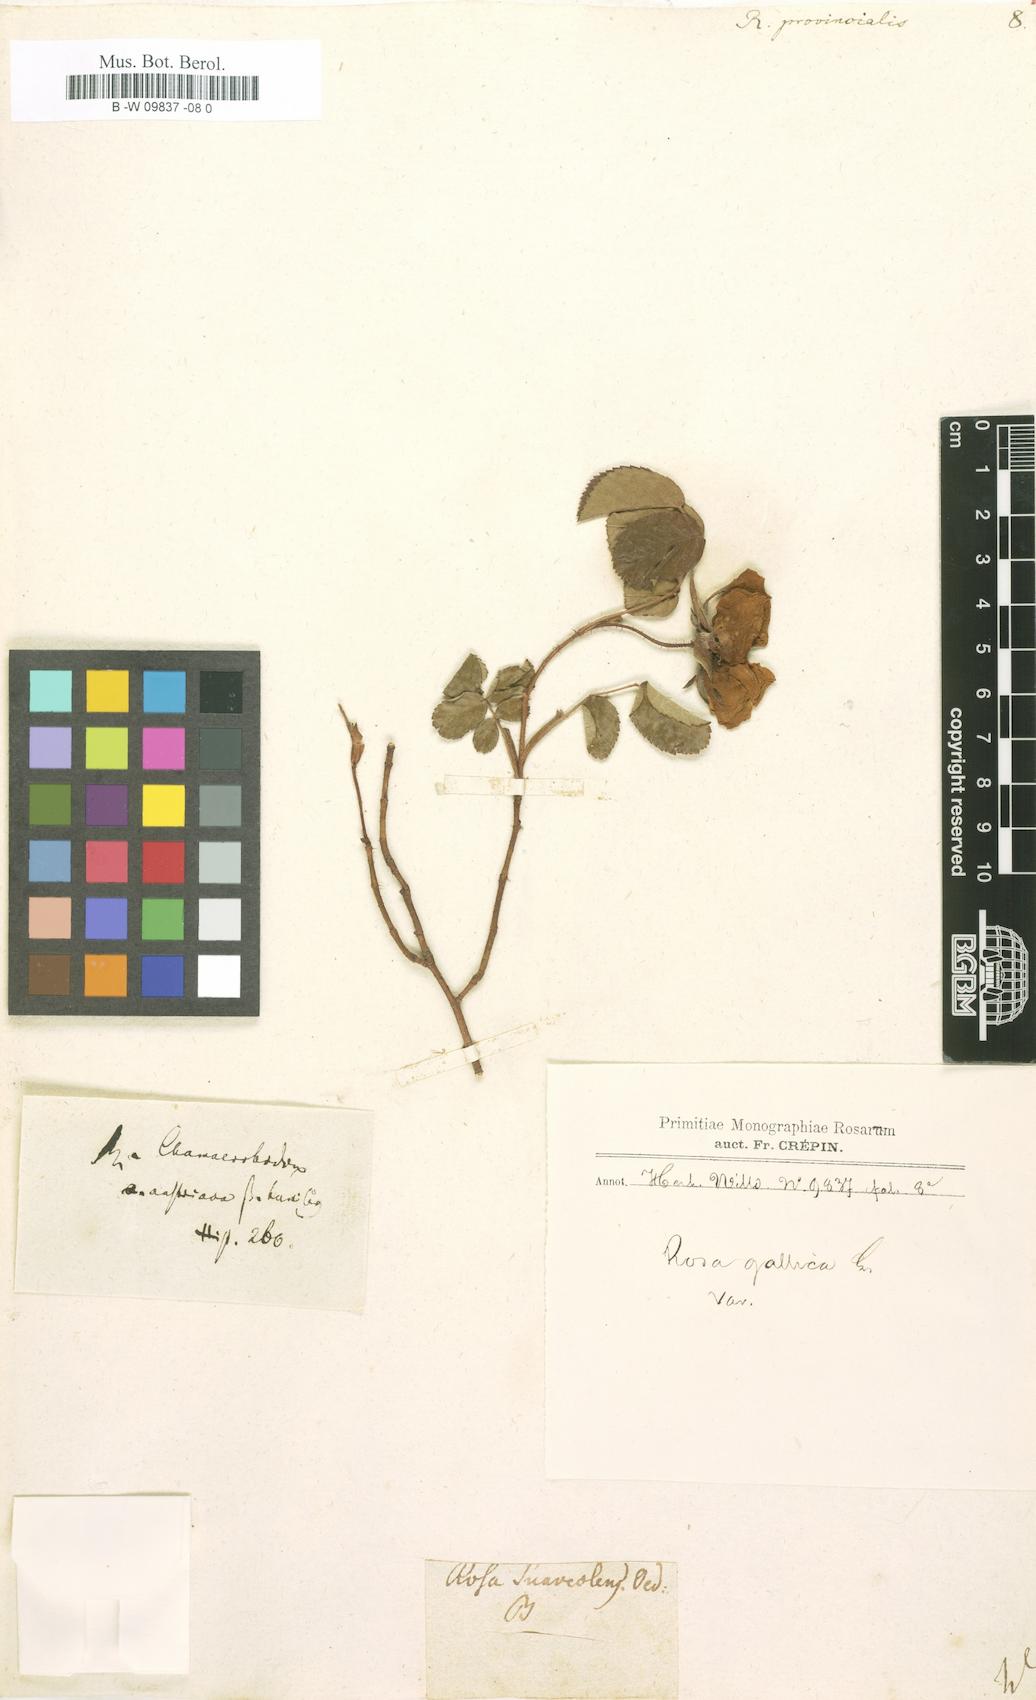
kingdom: Plantae
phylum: Tracheophyta
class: Magnoliopsida
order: Rosales
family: Rosaceae
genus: Rosa
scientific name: Rosa
